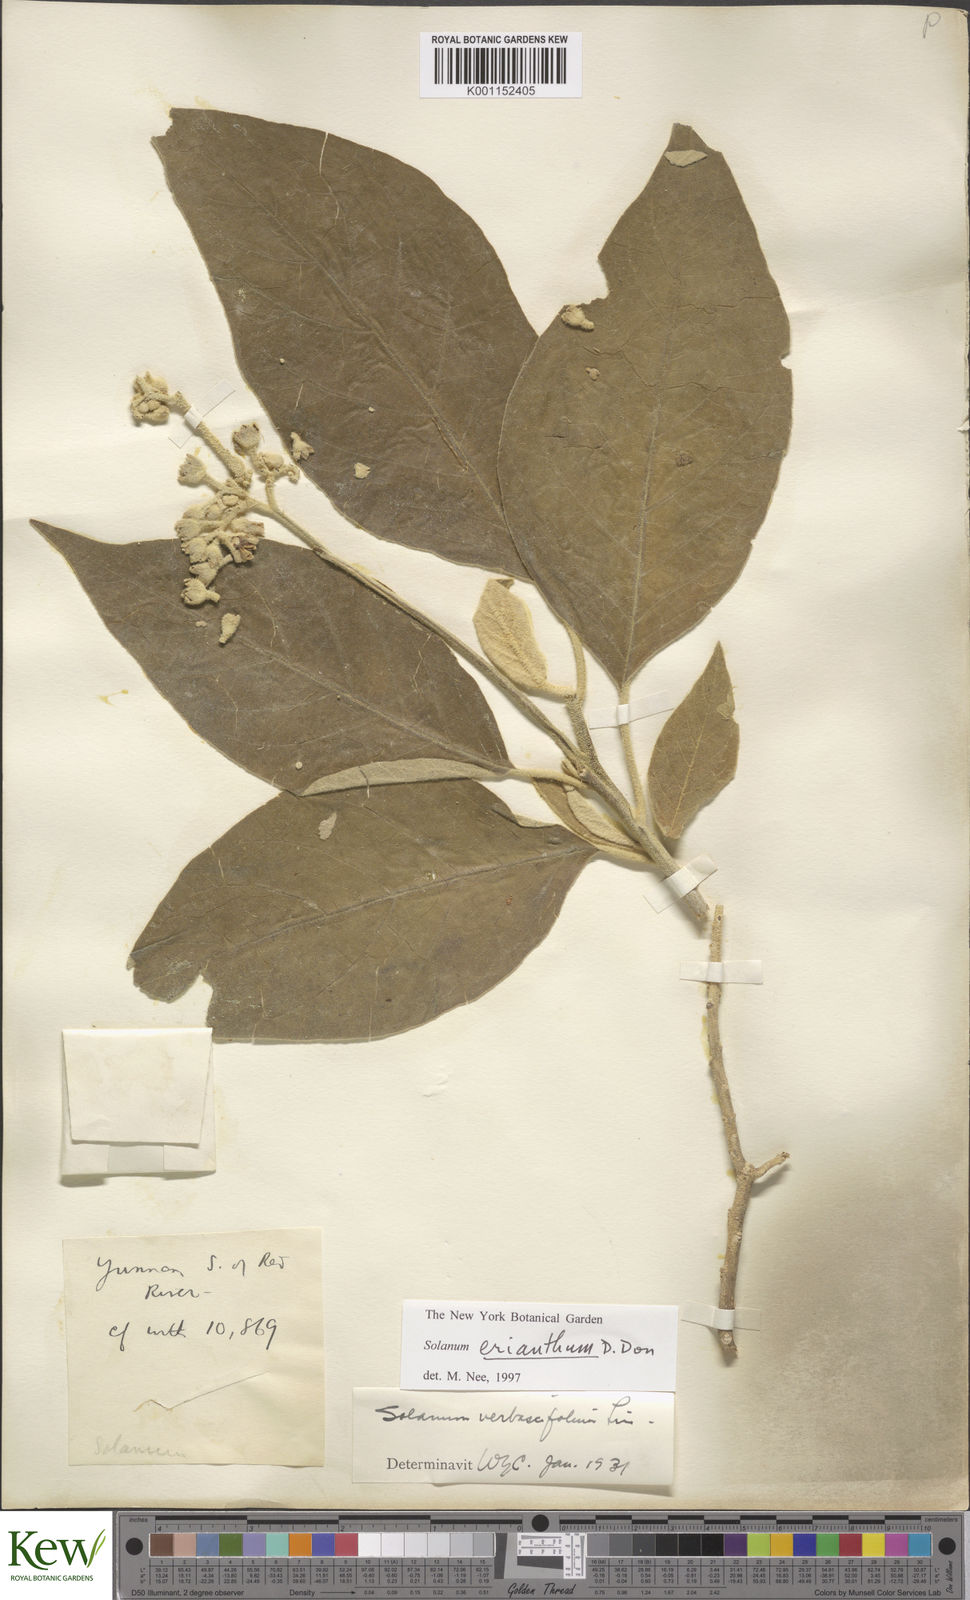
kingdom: Plantae
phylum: Tracheophyta
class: Magnoliopsida
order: Solanales
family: Solanaceae
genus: Solanum
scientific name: Solanum donianum
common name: Mullein nightshade
